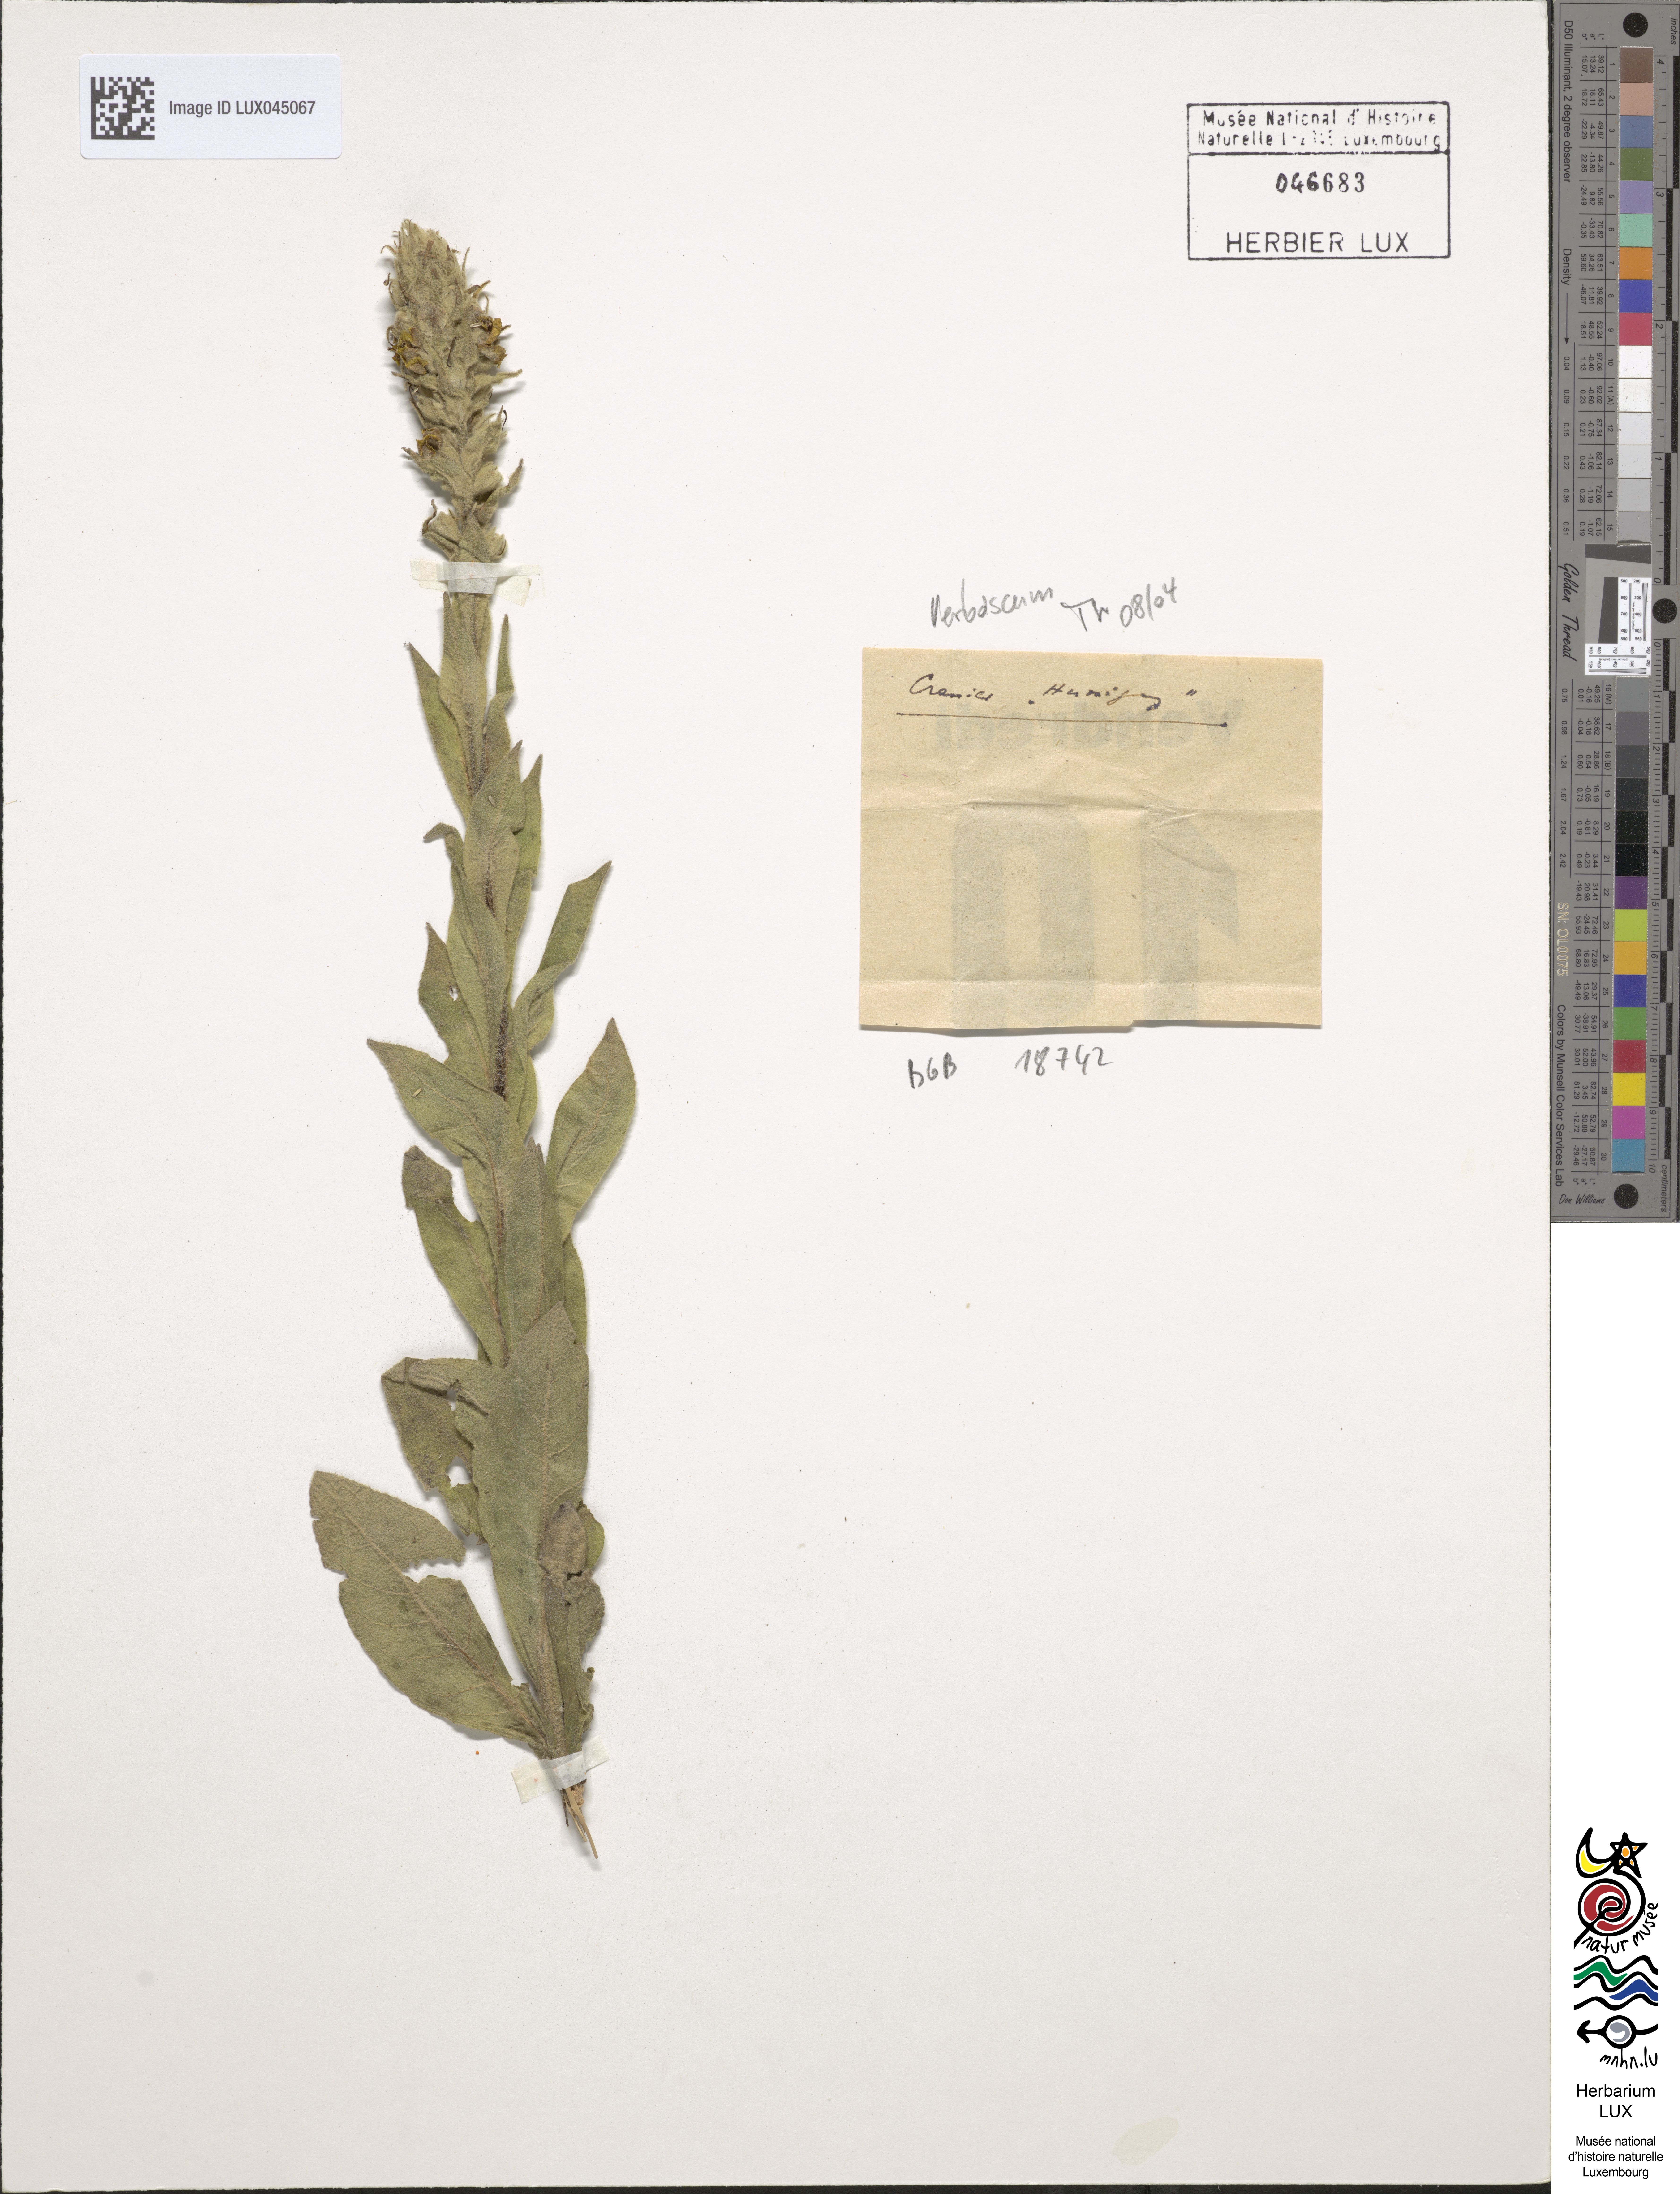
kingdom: Plantae
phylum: Tracheophyta
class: Magnoliopsida
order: Lamiales
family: Scrophulariaceae
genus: Verbascum
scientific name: Verbascum
